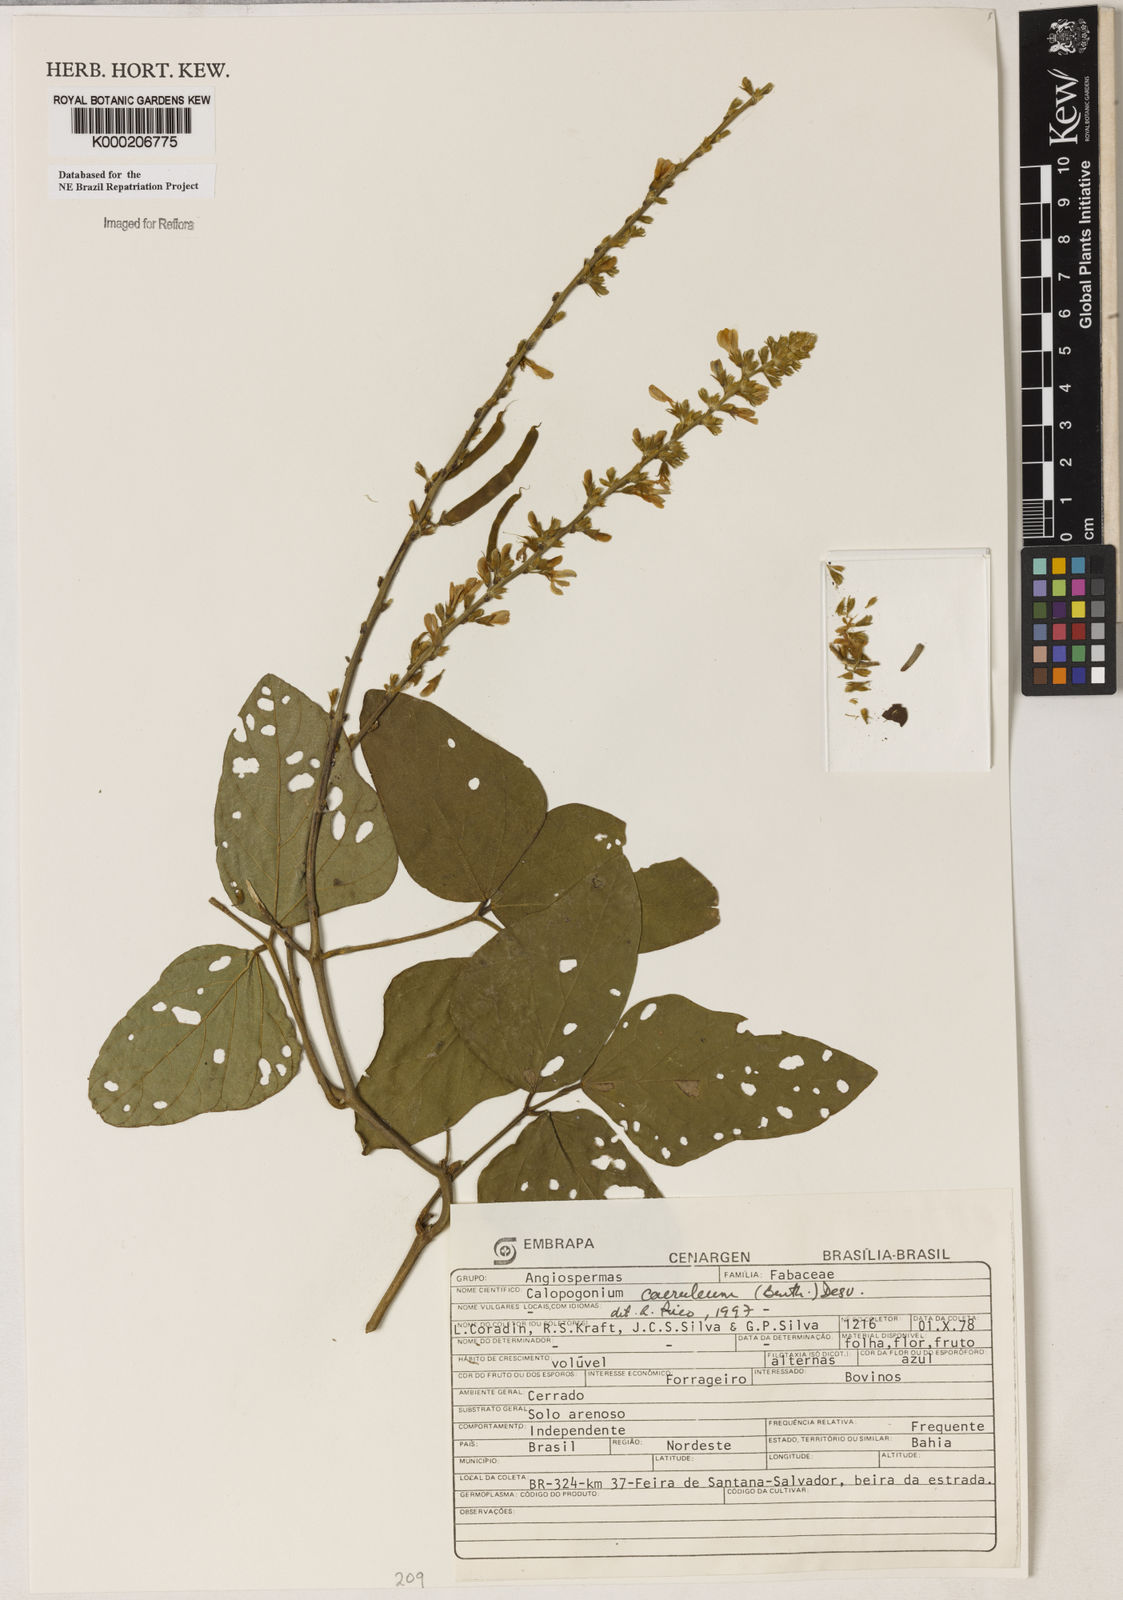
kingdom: Plantae
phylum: Tracheophyta
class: Magnoliopsida
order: Fabales
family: Fabaceae
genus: Calopogonium
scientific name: Calopogonium
